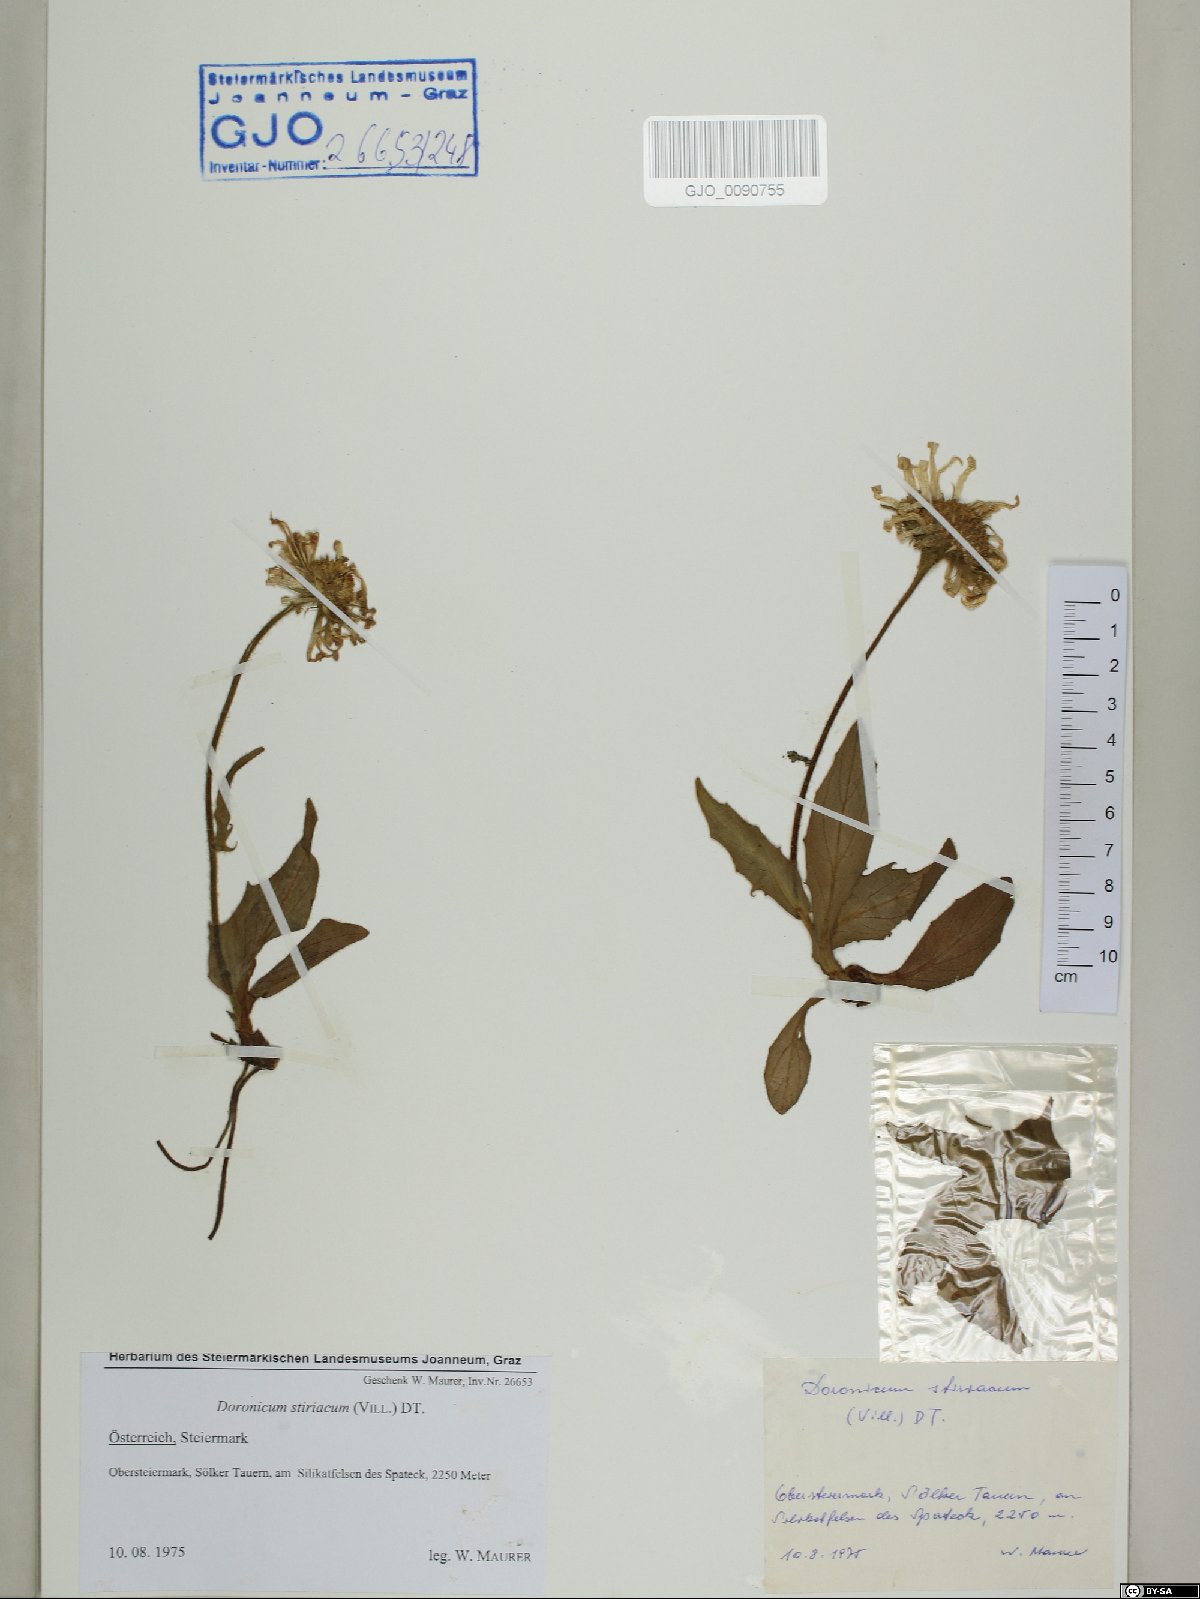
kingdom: Plantae
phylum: Tracheophyta
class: Magnoliopsida
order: Asterales
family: Asteraceae
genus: Doronicum
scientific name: Doronicum clusii
